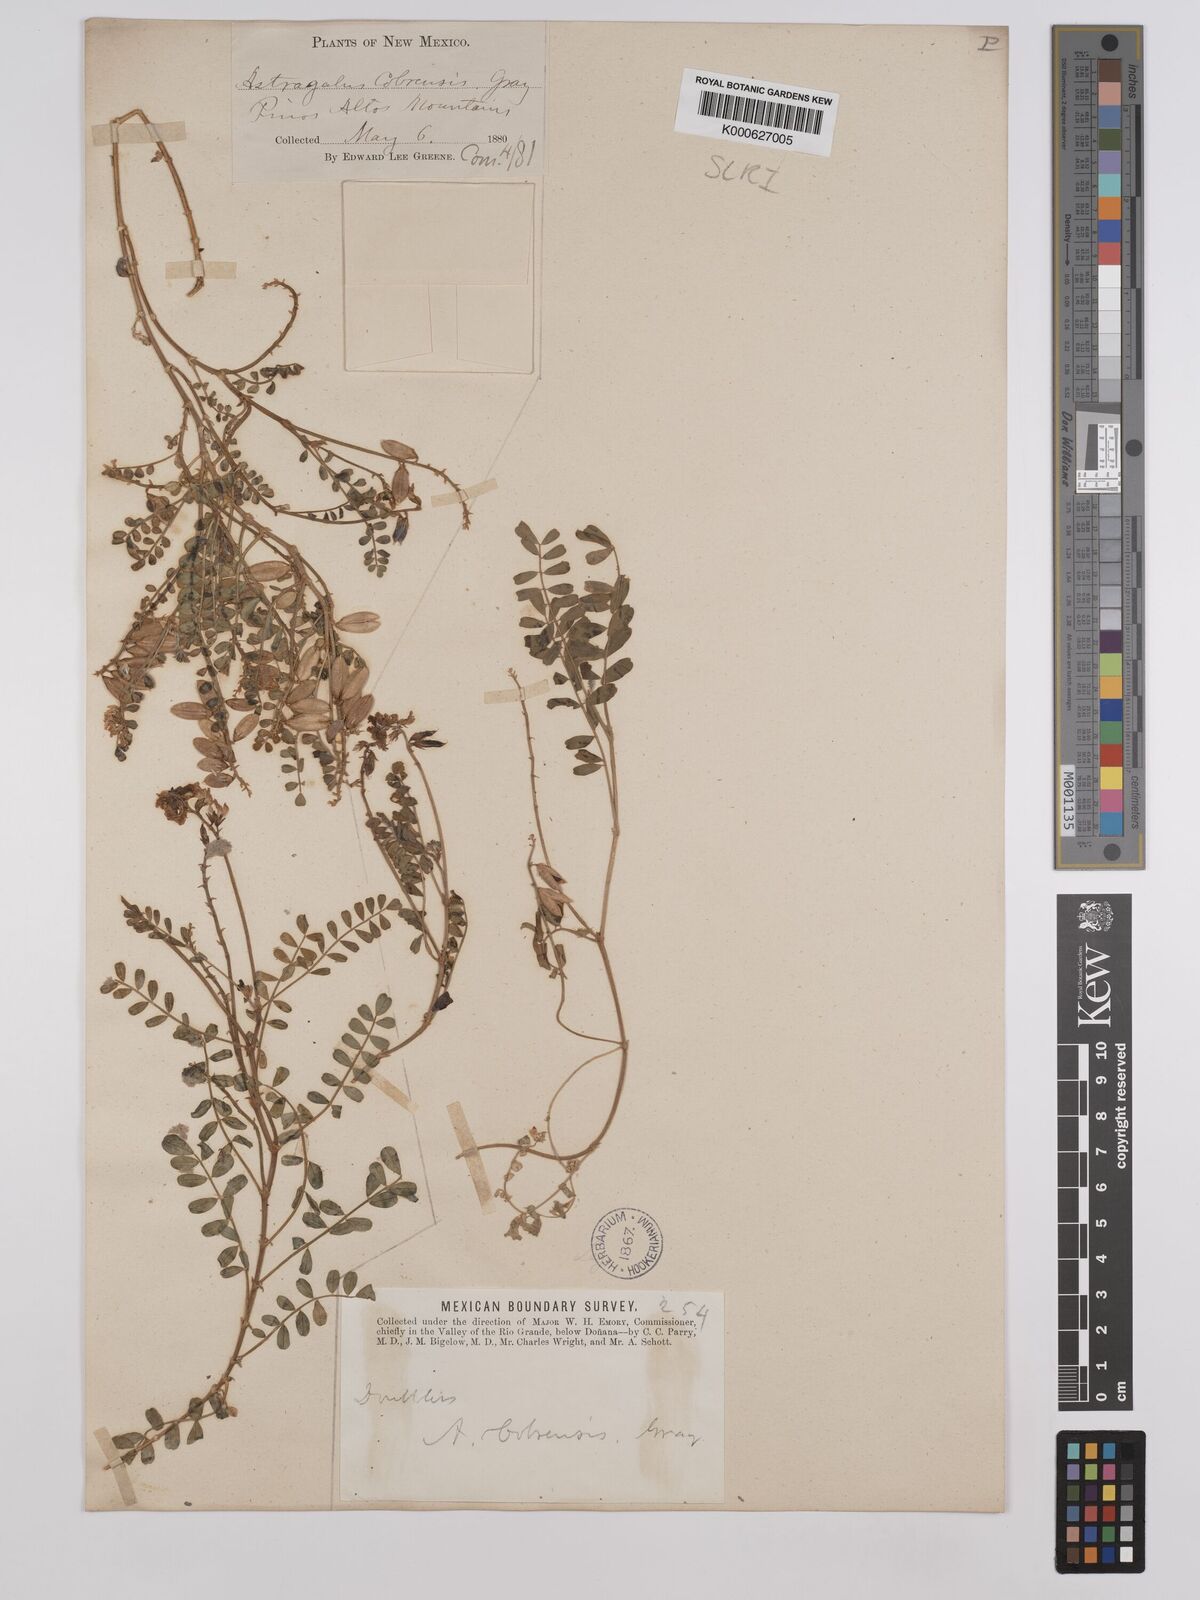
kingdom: Plantae
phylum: Tracheophyta
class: Magnoliopsida
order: Fabales
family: Fabaceae
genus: Astragalus
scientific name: Astragalus cobrensis
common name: Copper mine milkvetch
